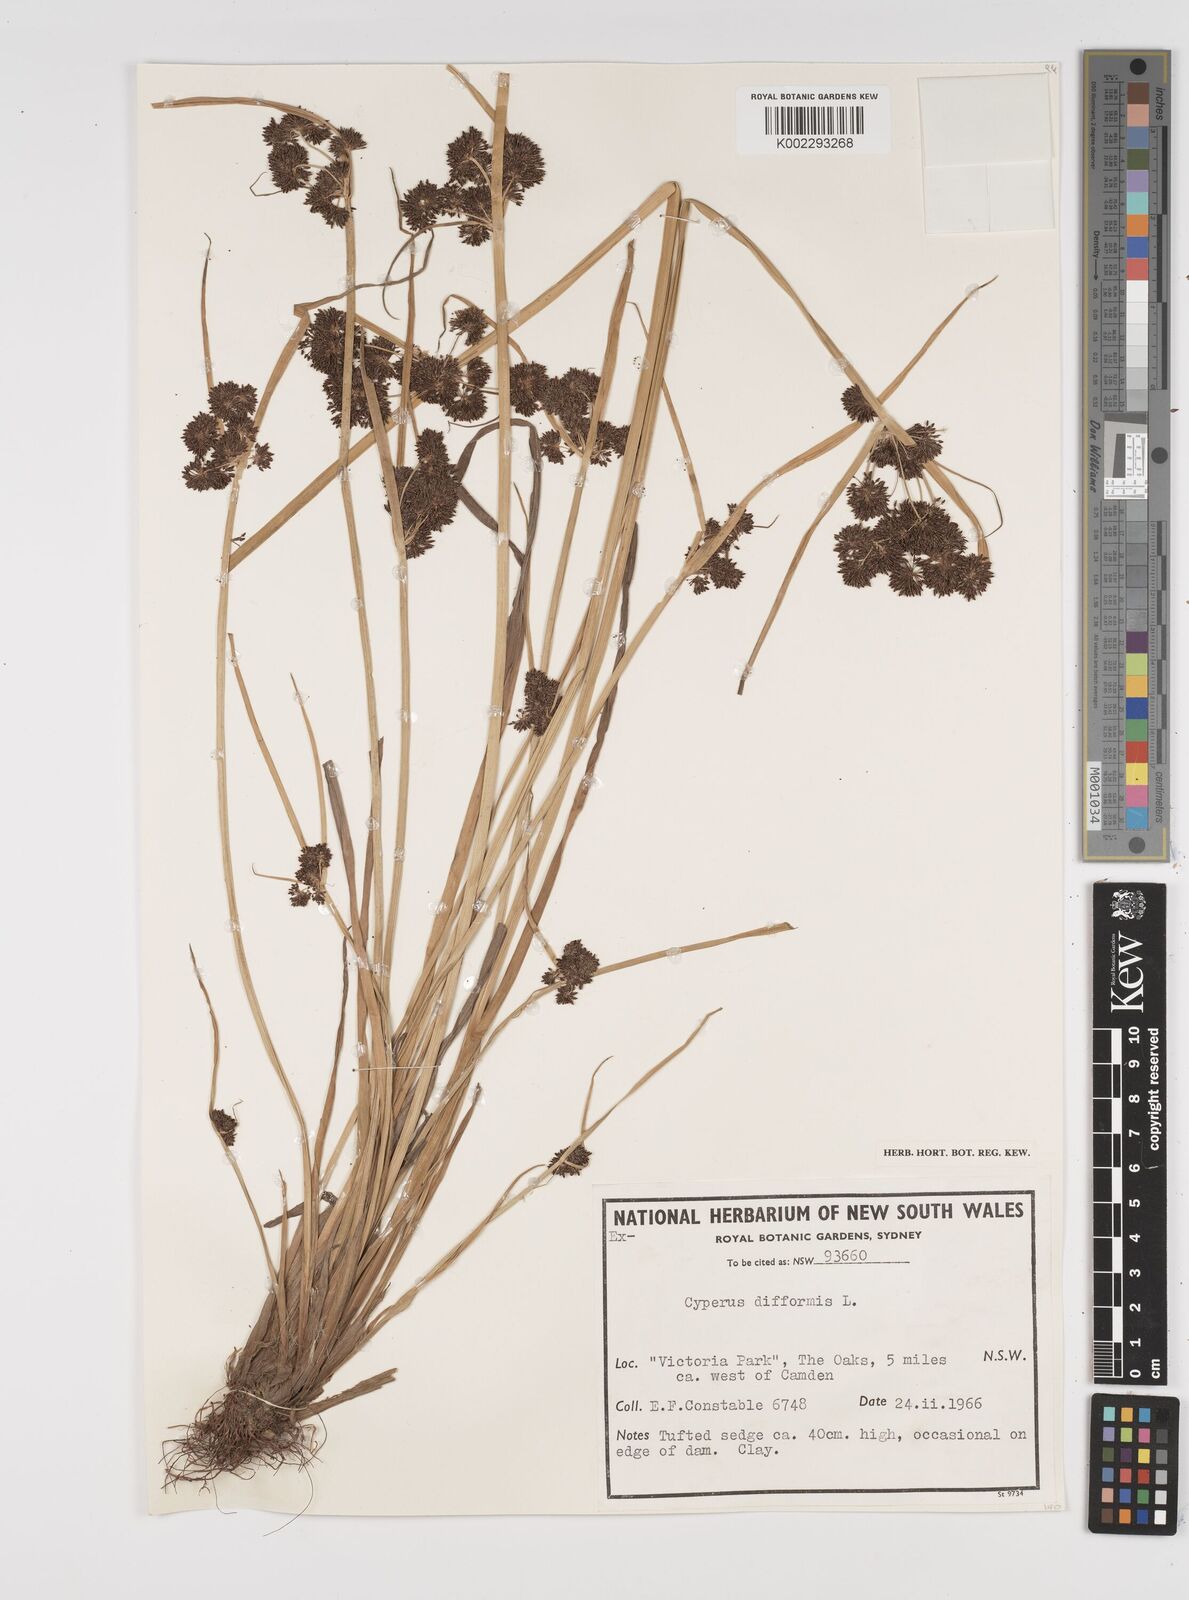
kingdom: Plantae
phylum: Tracheophyta
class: Liliopsida
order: Poales
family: Cyperaceae
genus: Cyperus
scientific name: Cyperus difformis
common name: Variable flatsedge
